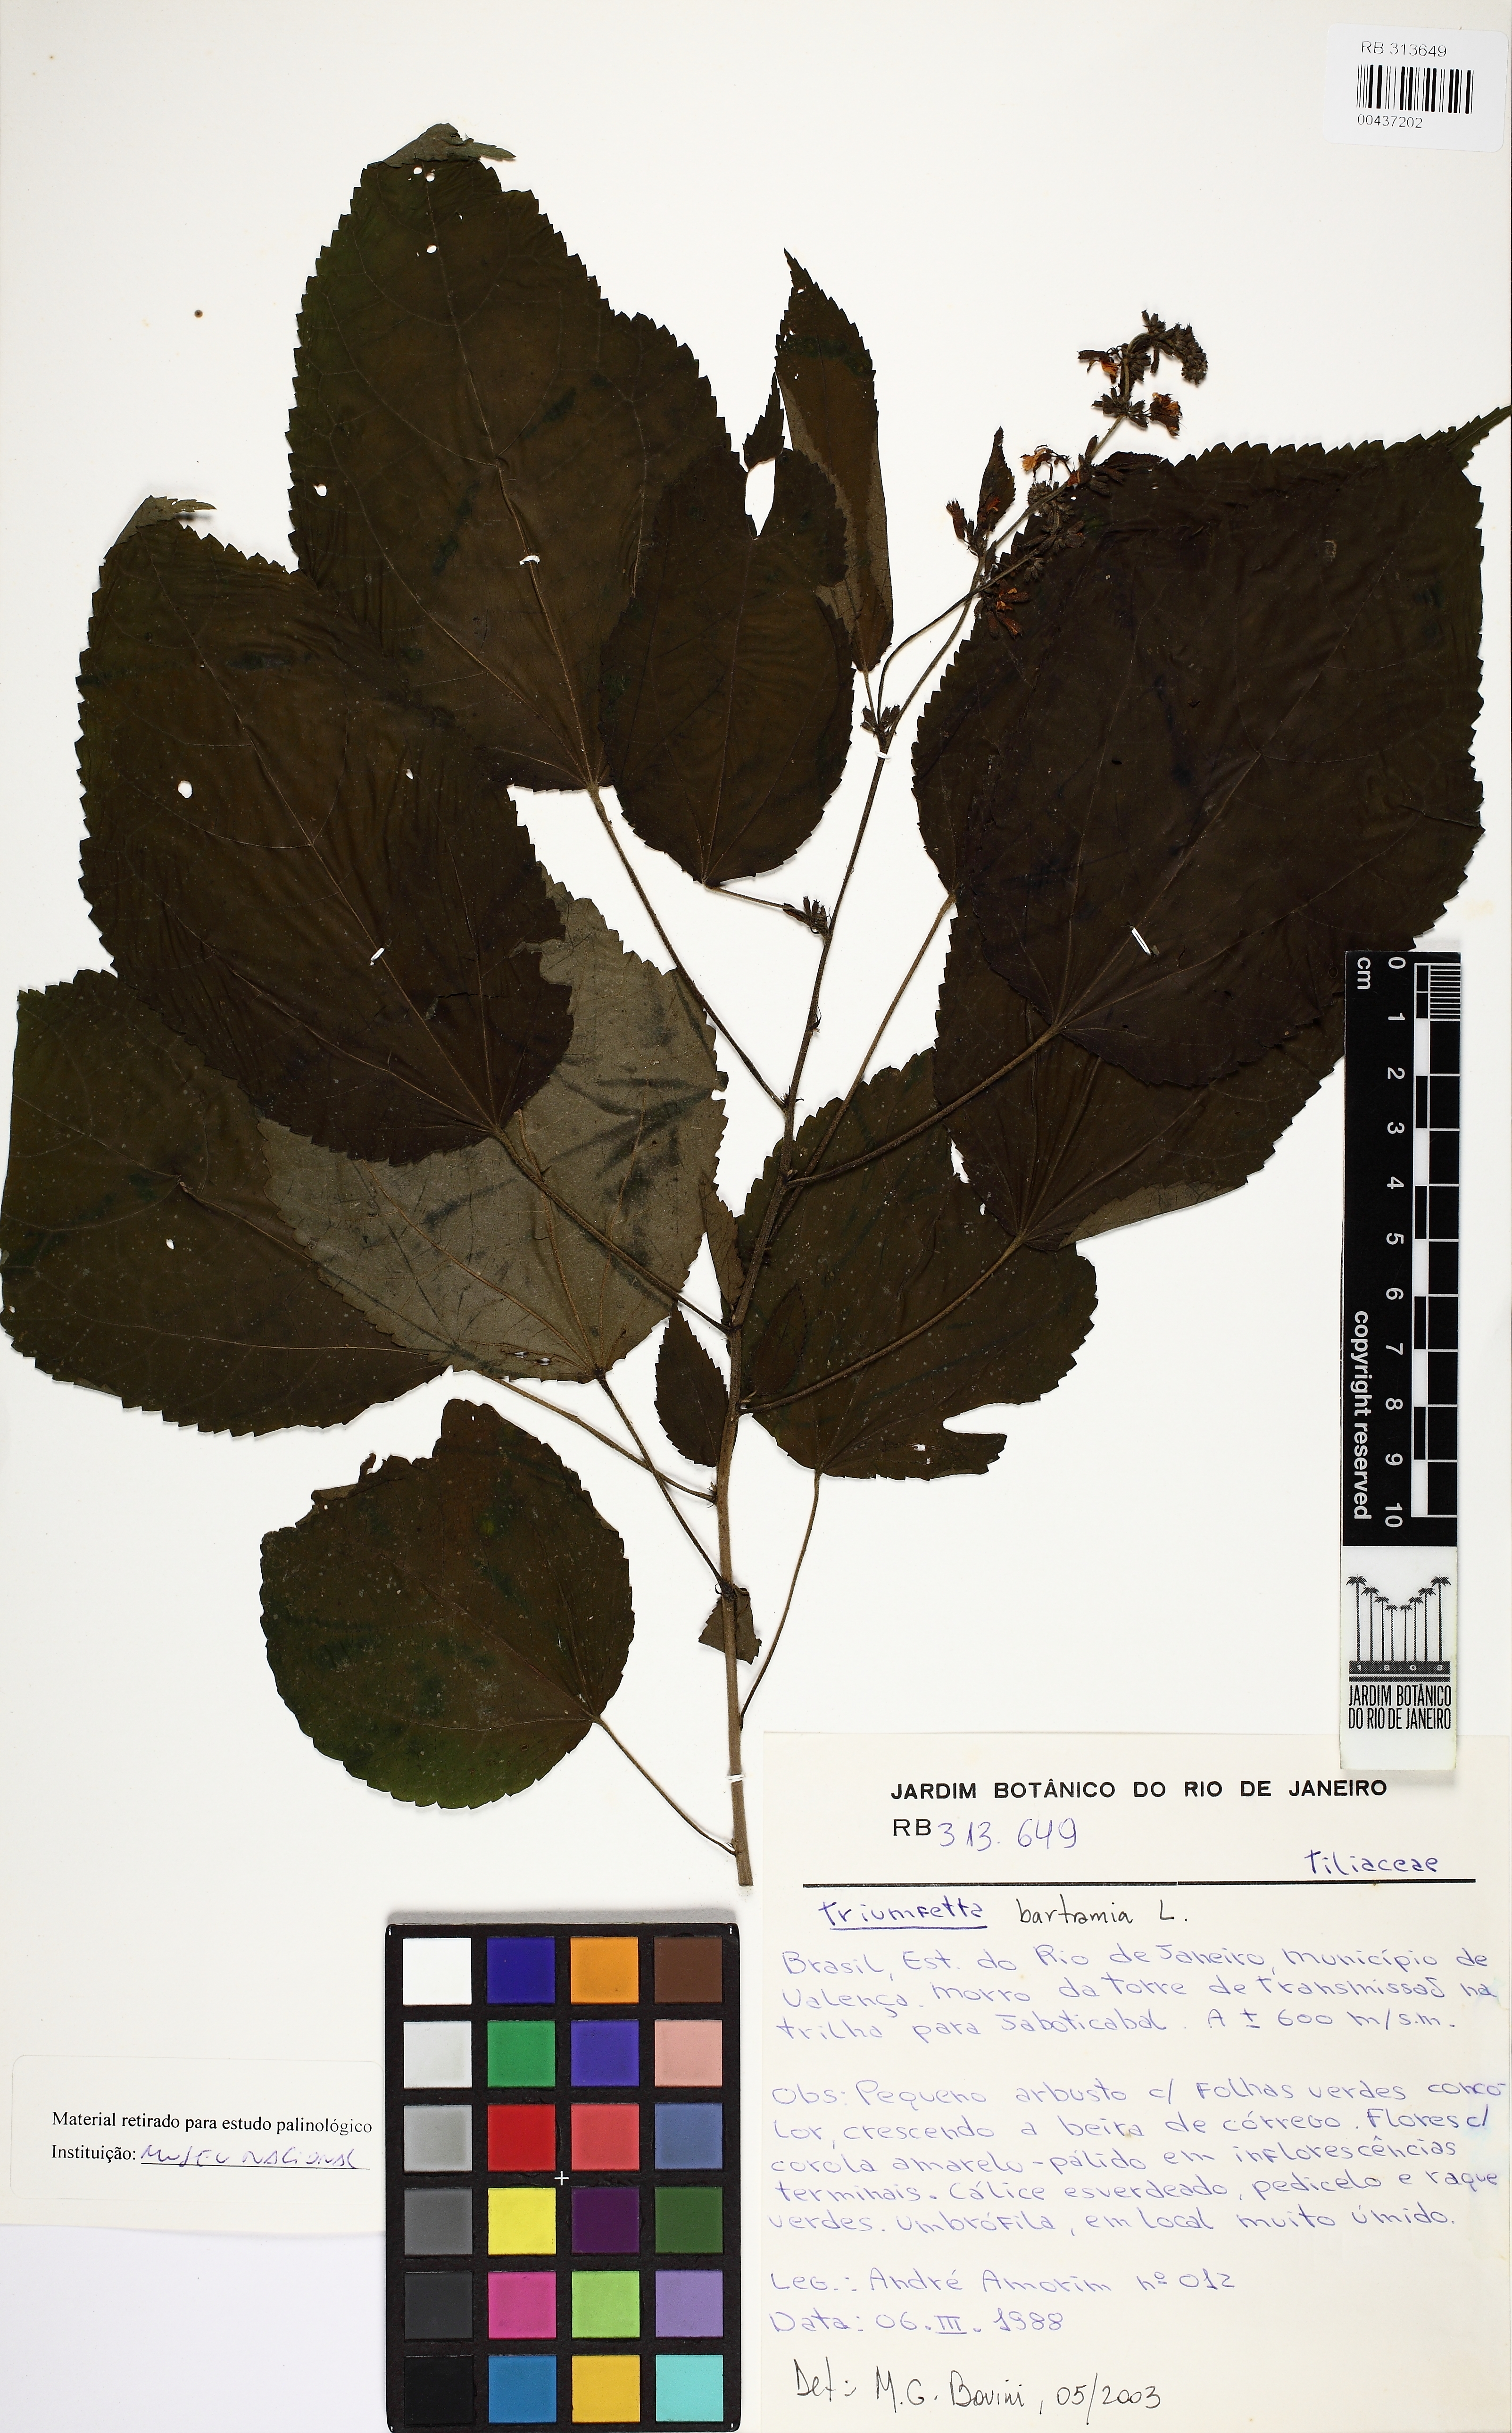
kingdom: Plantae
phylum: Tracheophyta
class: Magnoliopsida
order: Malvales
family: Malvaceae
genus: Triumfetta
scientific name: Triumfetta rhomboidea
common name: Diamond burbark
